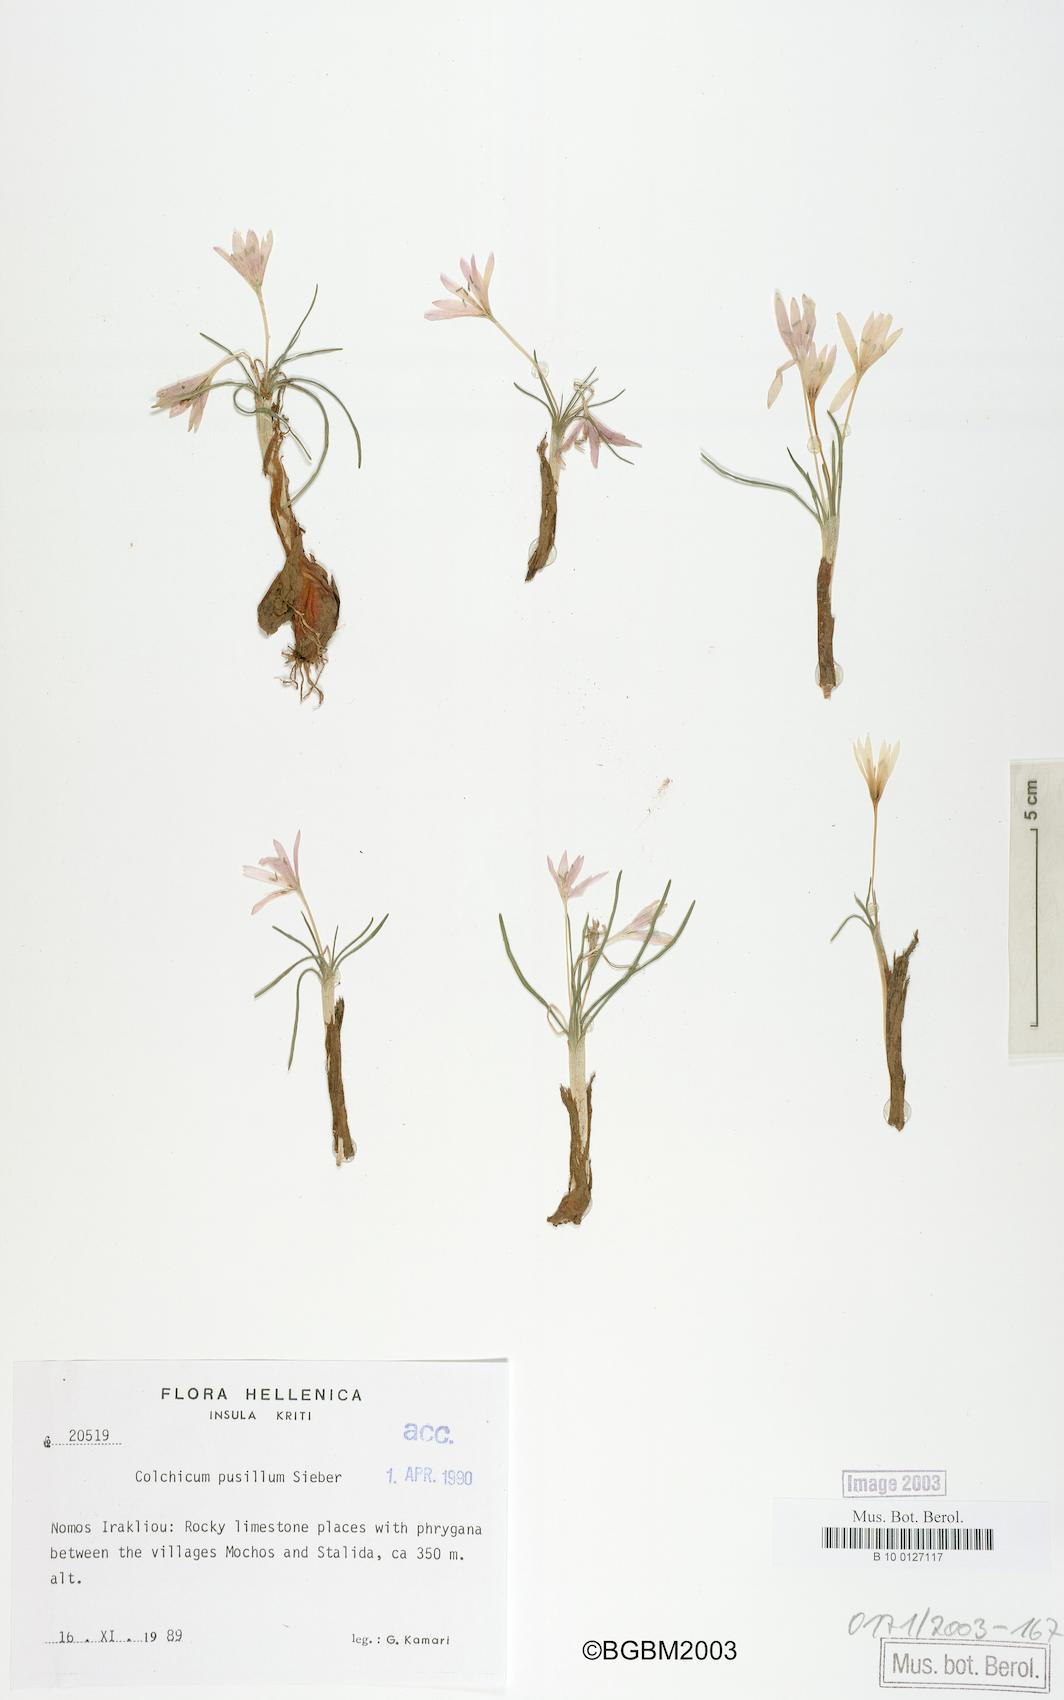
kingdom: Plantae
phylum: Tracheophyta
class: Liliopsida
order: Liliales
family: Colchicaceae
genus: Colchicum
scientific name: Colchicum pusillum
